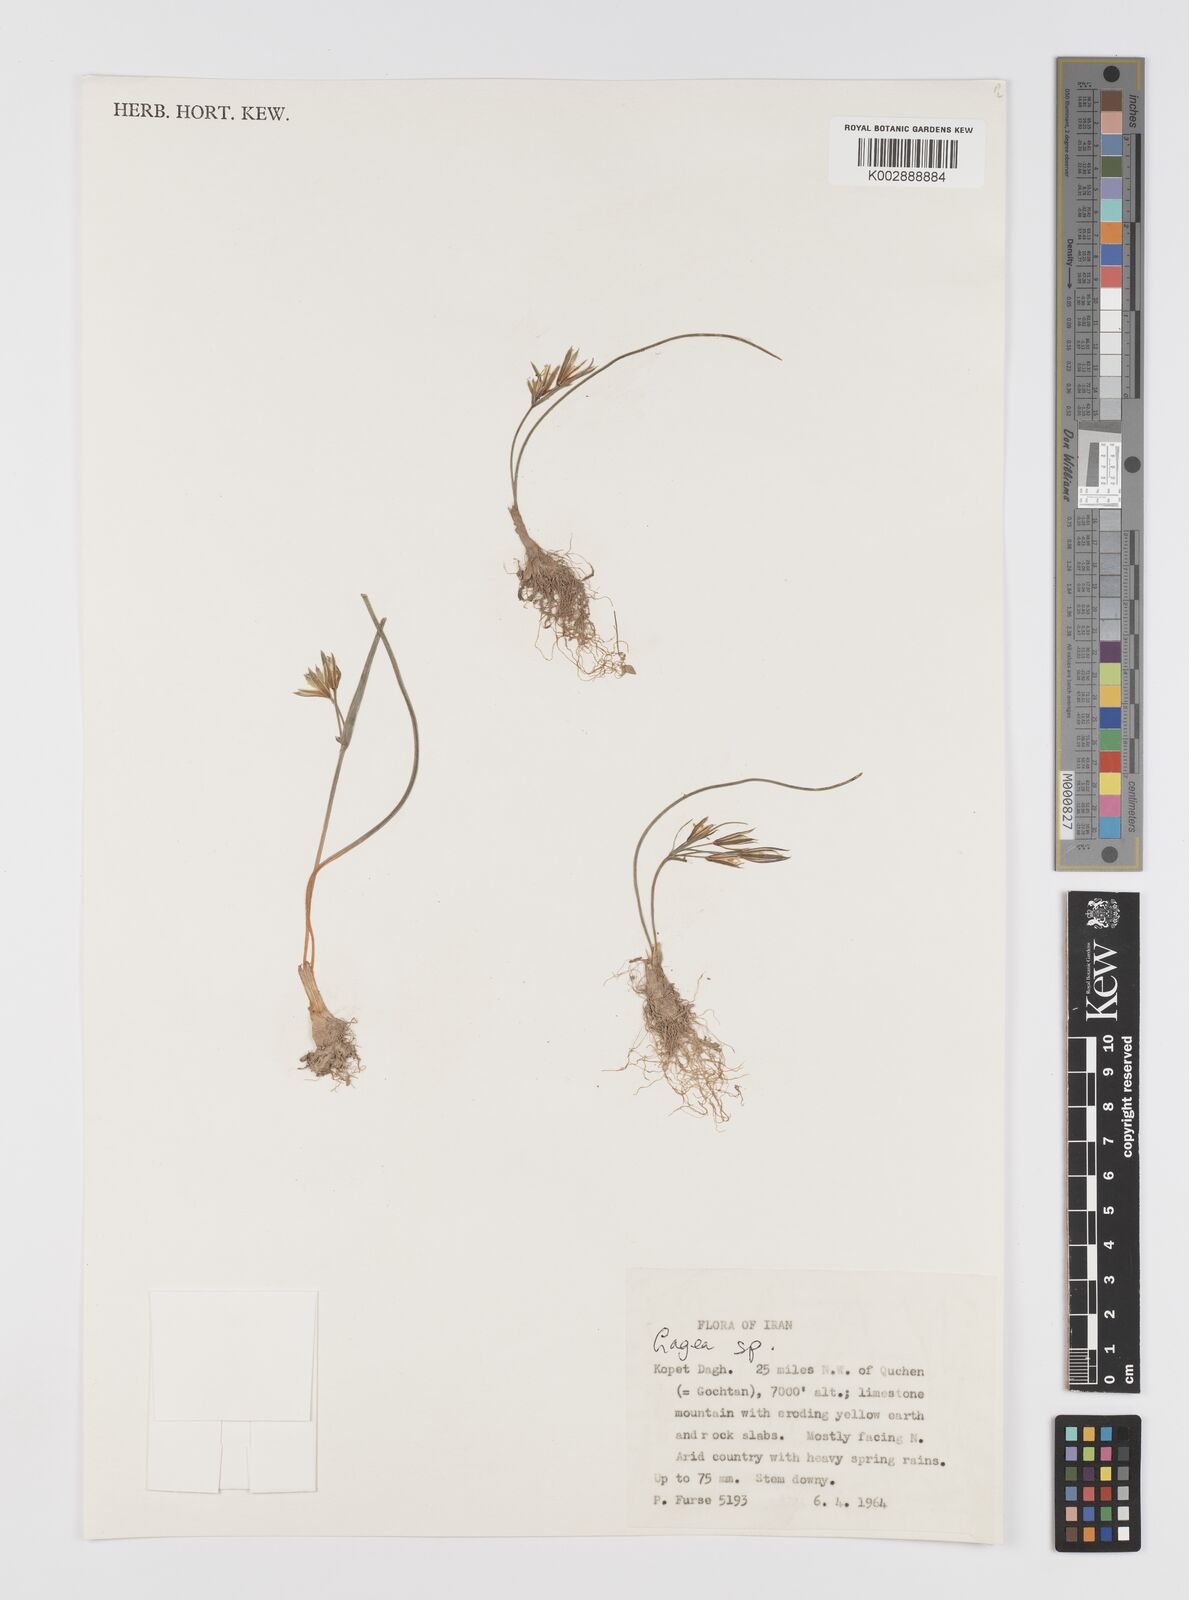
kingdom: Plantae
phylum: Tracheophyta
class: Liliopsida
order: Liliales
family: Liliaceae
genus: Gagea
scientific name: Gagea
